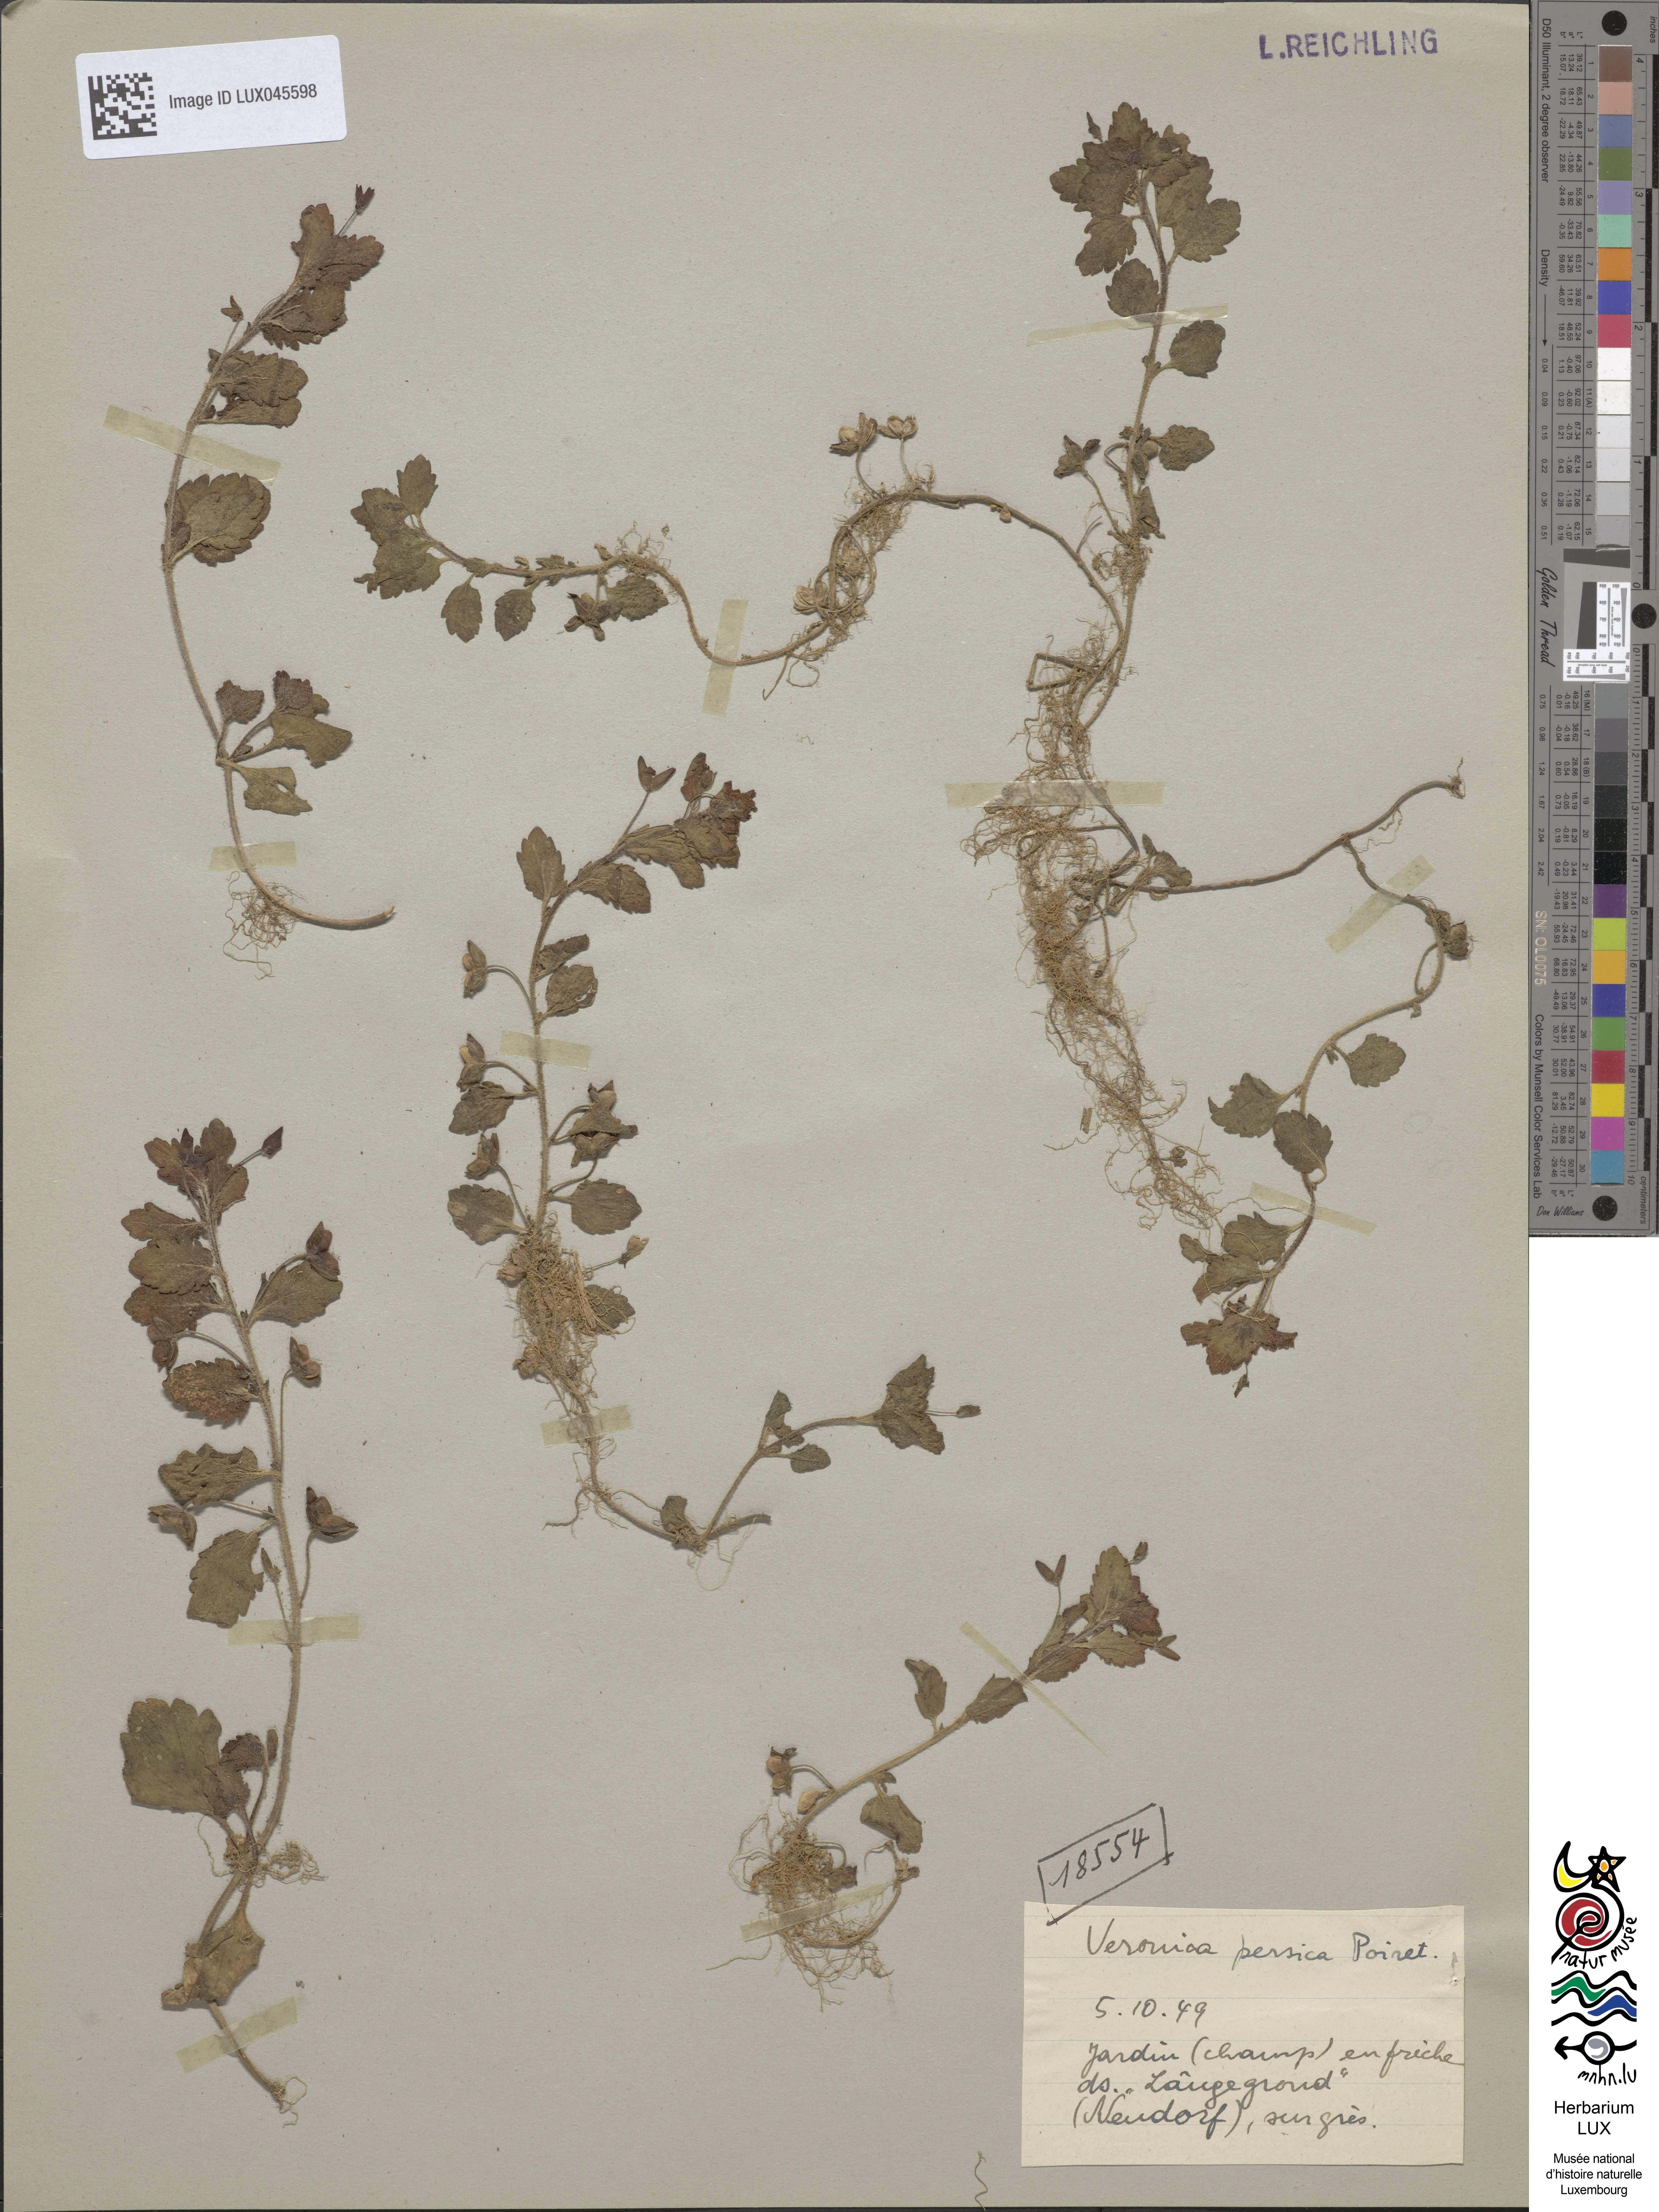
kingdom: Plantae
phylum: Tracheophyta
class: Magnoliopsida
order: Lamiales
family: Plantaginaceae
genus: Veronica
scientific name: Veronica persica
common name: Common field-speedwell
